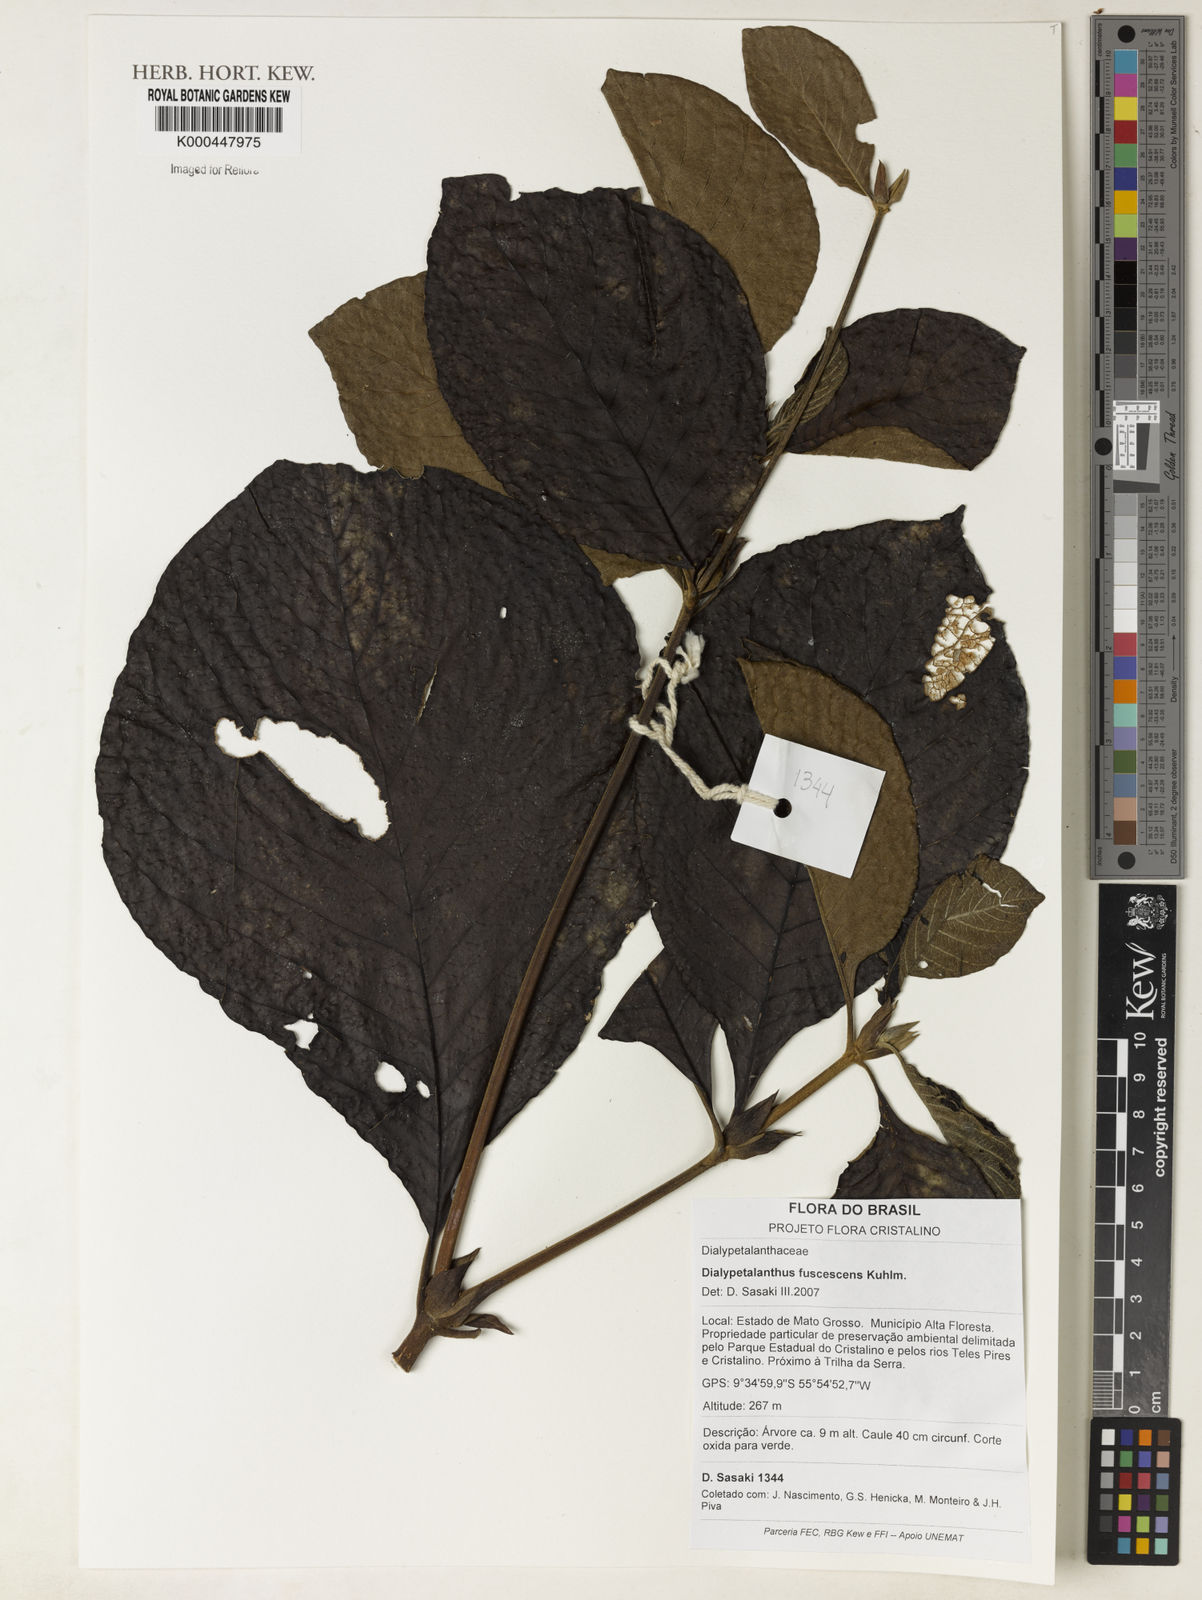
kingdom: Plantae
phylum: Tracheophyta
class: Magnoliopsida
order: Gentianales
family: Rubiaceae
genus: Dialypetalanthus
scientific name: Dialypetalanthus fuscescens
